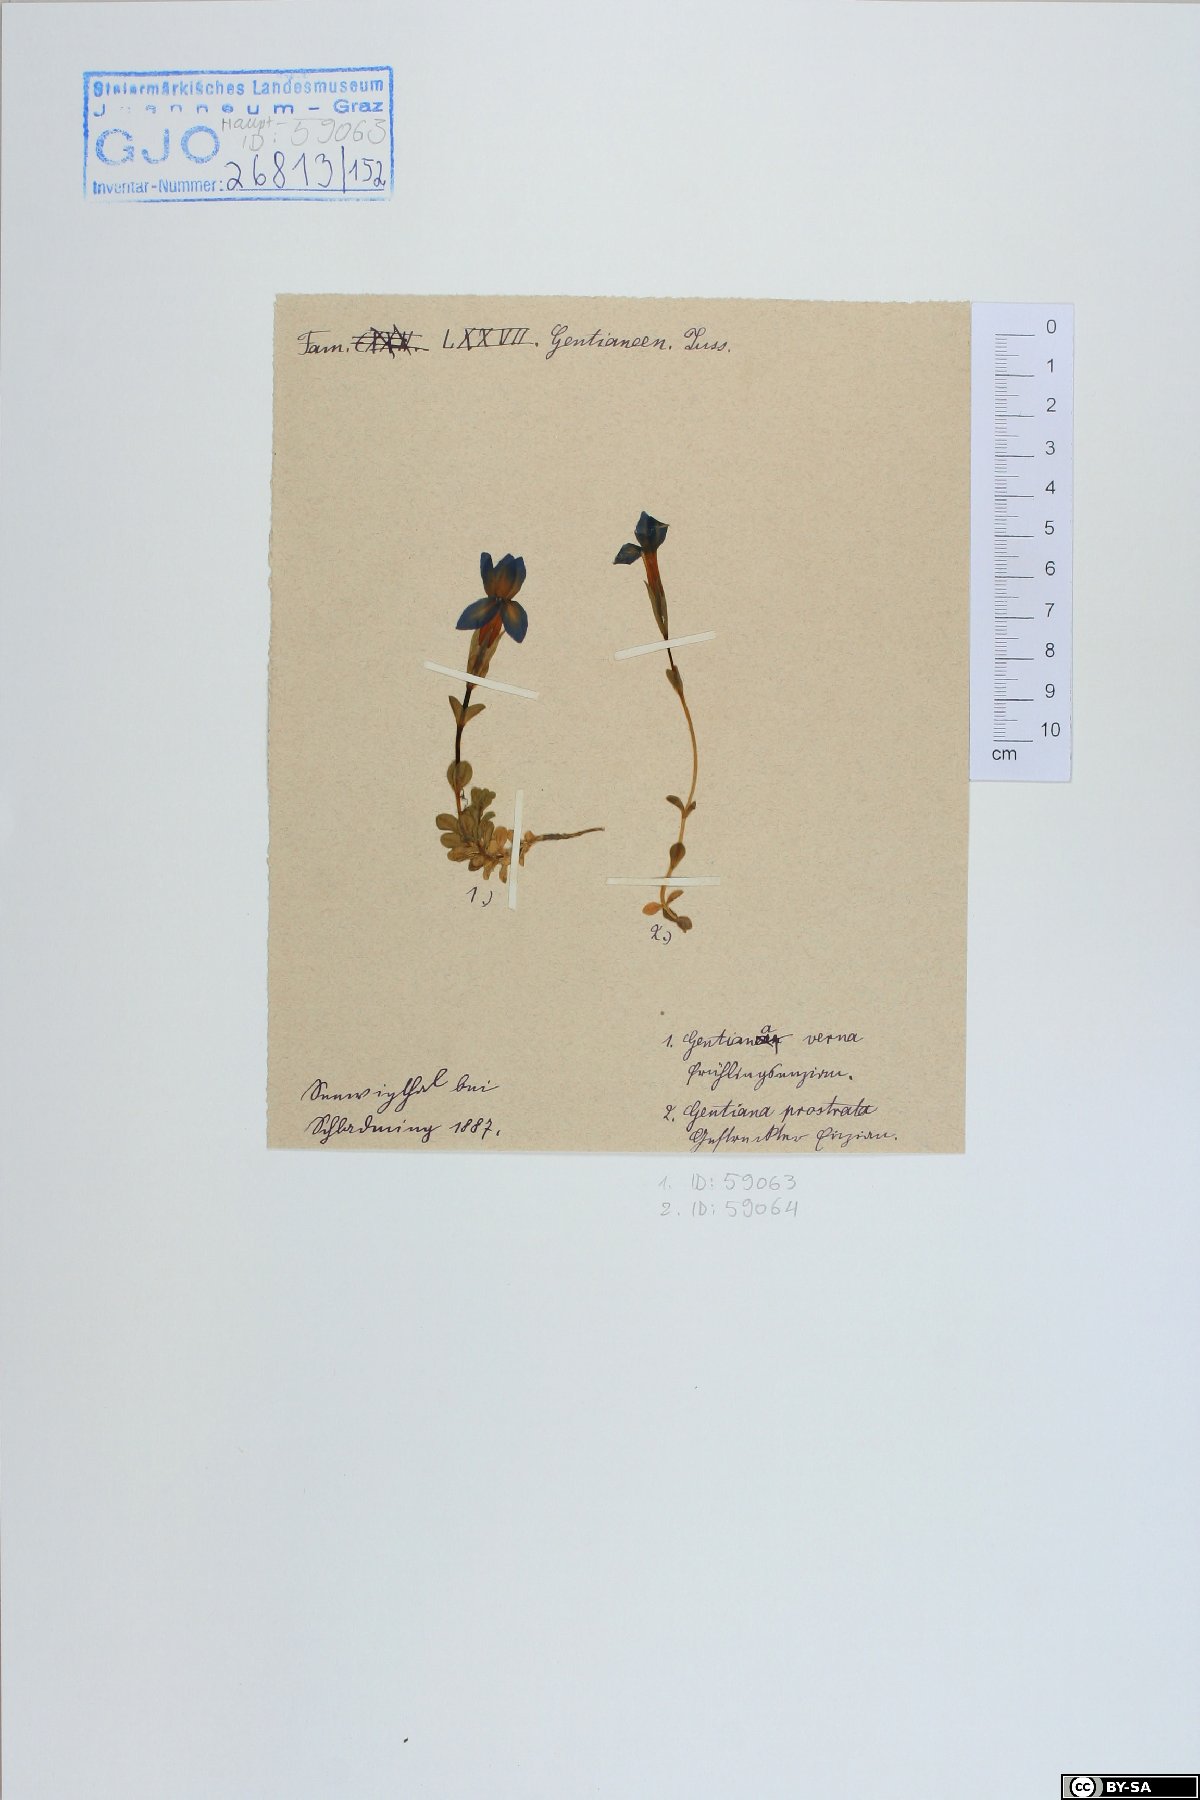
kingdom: Plantae
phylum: Tracheophyta
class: Magnoliopsida
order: Gentianales
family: Gentianaceae
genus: Gentiana
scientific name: Gentiana verna
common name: Spring gentian
